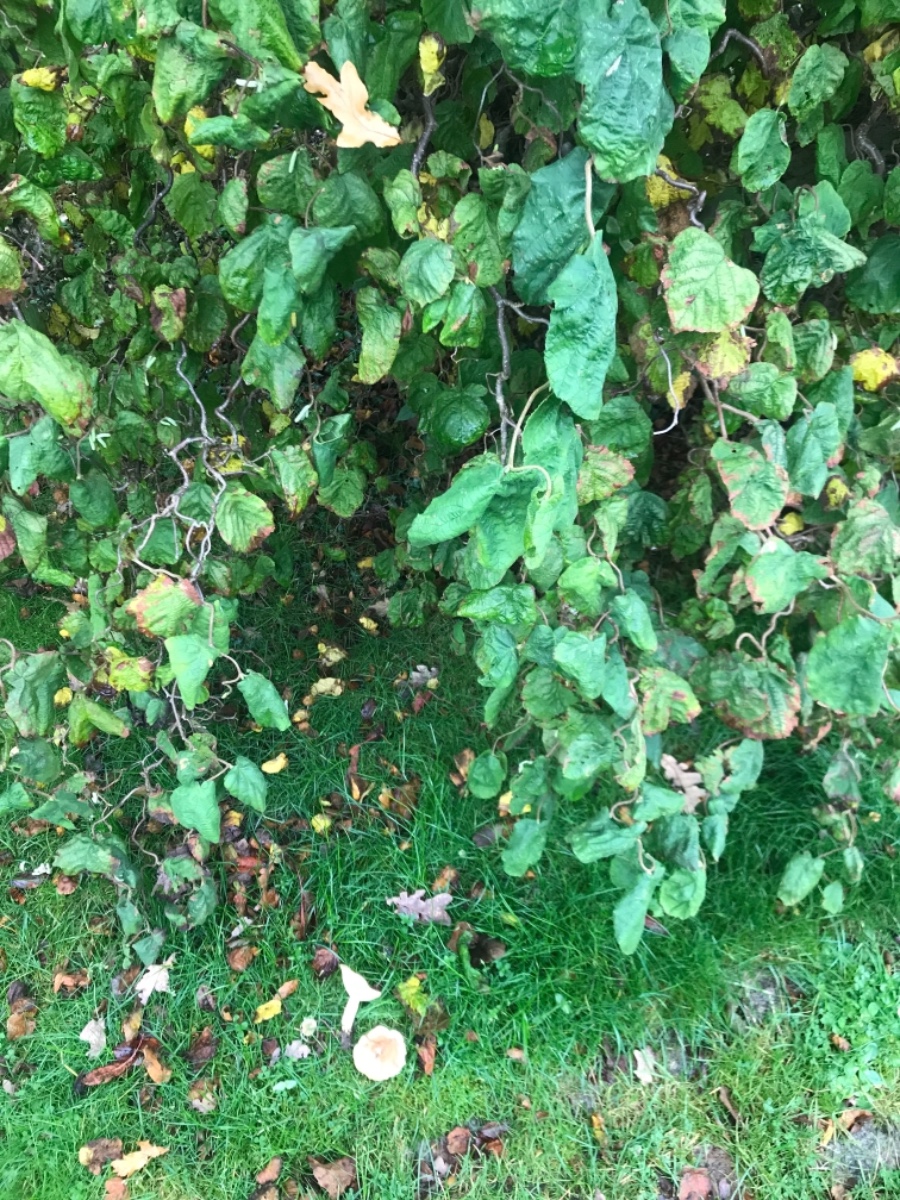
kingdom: Fungi
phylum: Basidiomycota
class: Agaricomycetes
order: Russulales
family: Russulaceae
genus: Lactarius
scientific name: Lactarius pyrogalus
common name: hassel-mælkehat
